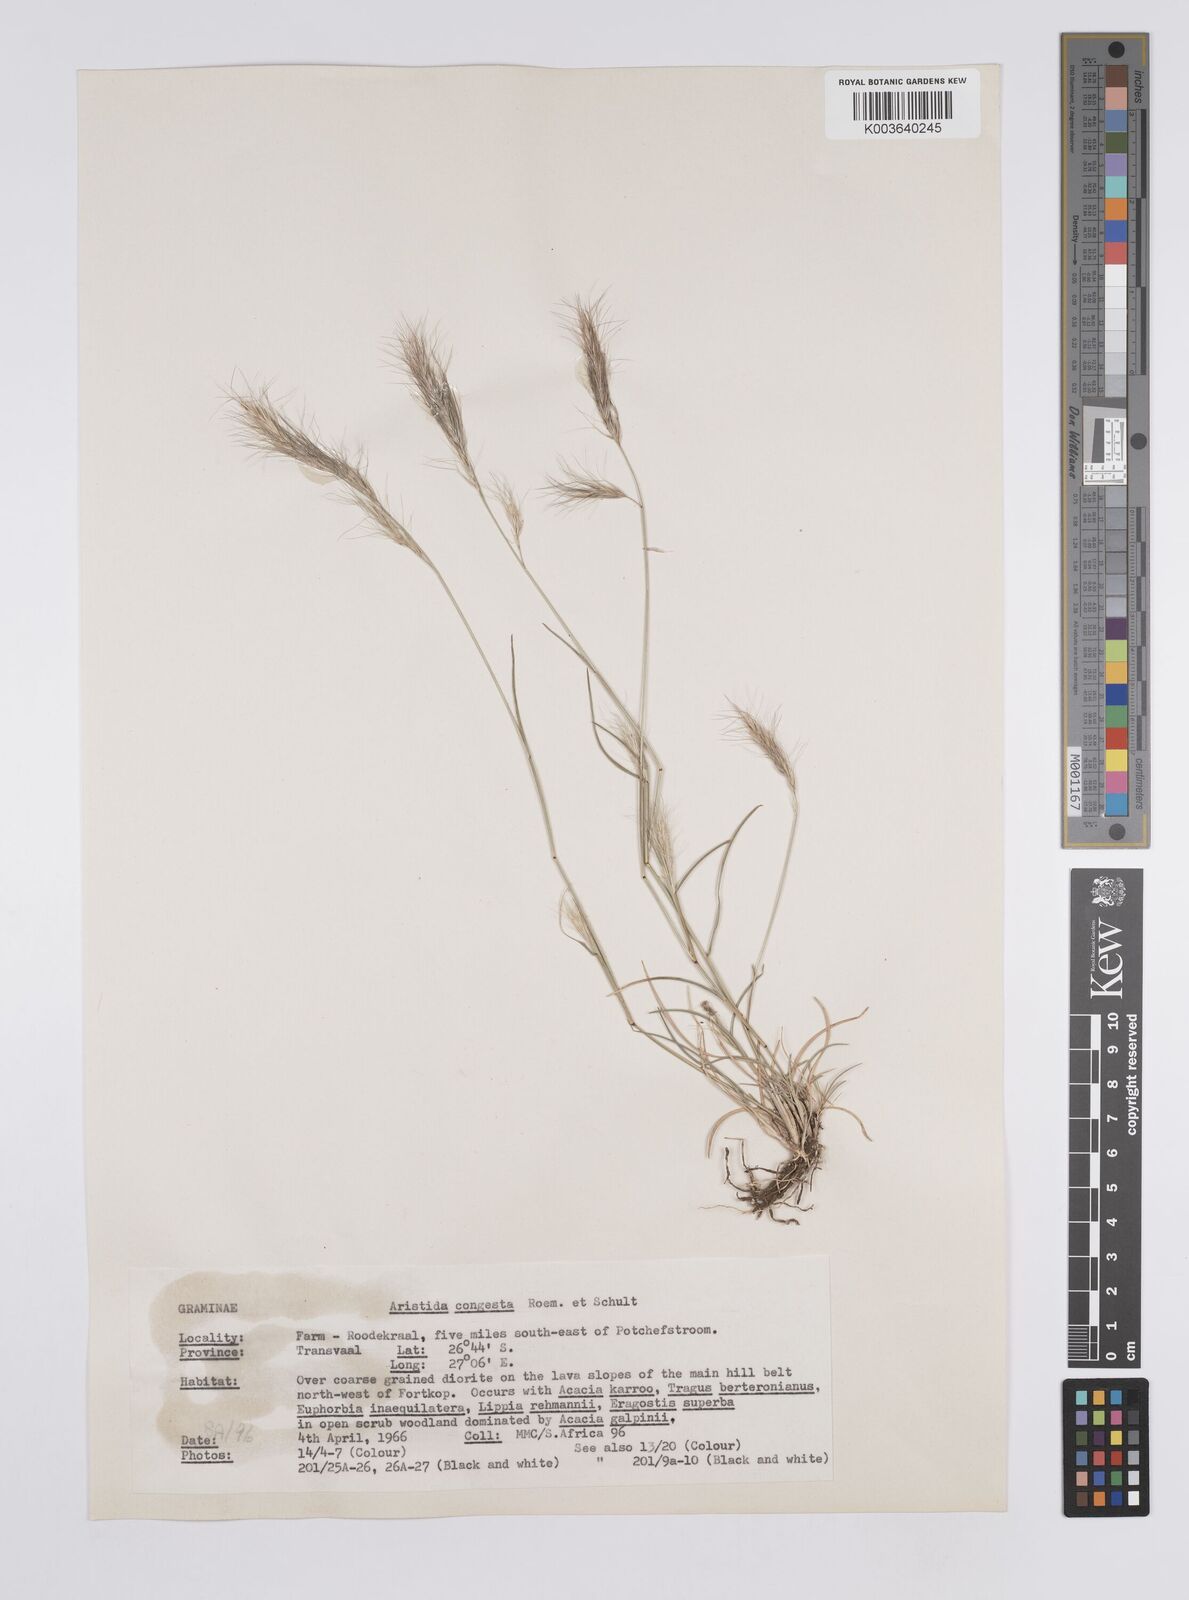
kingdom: Plantae
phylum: Tracheophyta
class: Liliopsida
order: Poales
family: Poaceae
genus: Aristida
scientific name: Aristida congesta
